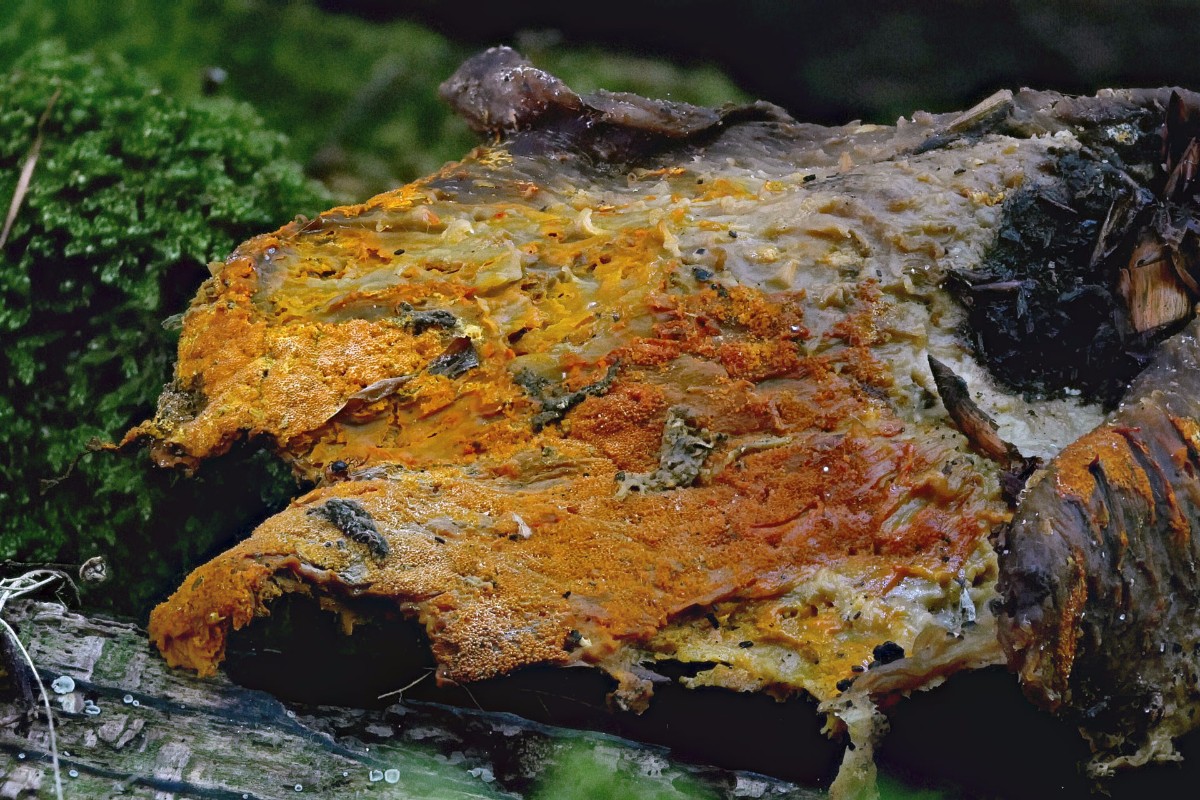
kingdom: Fungi
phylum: Ascomycota
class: Sordariomycetes
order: Hypocreales
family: Hypocreaceae
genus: Hypomyces
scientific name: Hypomyces aurantius
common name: almindelig snylteskorpe
